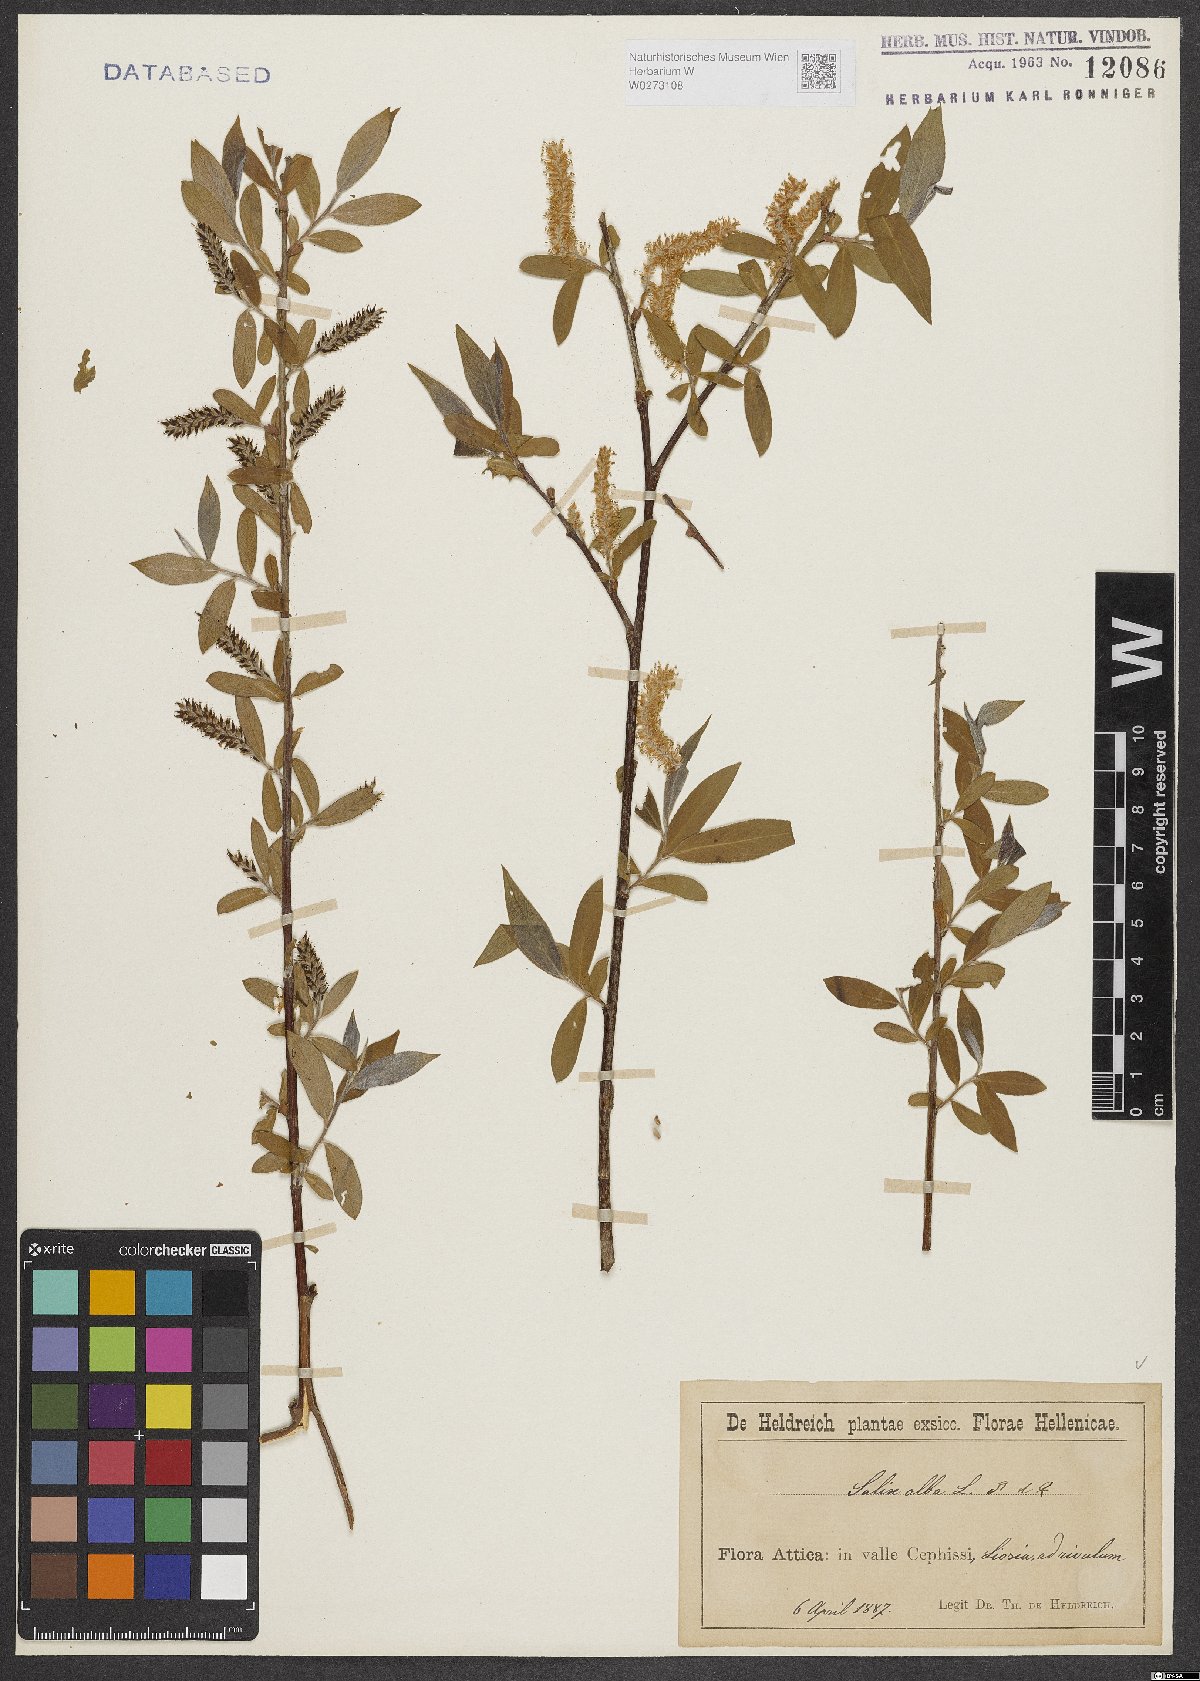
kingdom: Plantae
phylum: Tracheophyta
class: Magnoliopsida
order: Malpighiales
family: Salicaceae
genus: Salix
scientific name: Salix alba
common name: White willow
